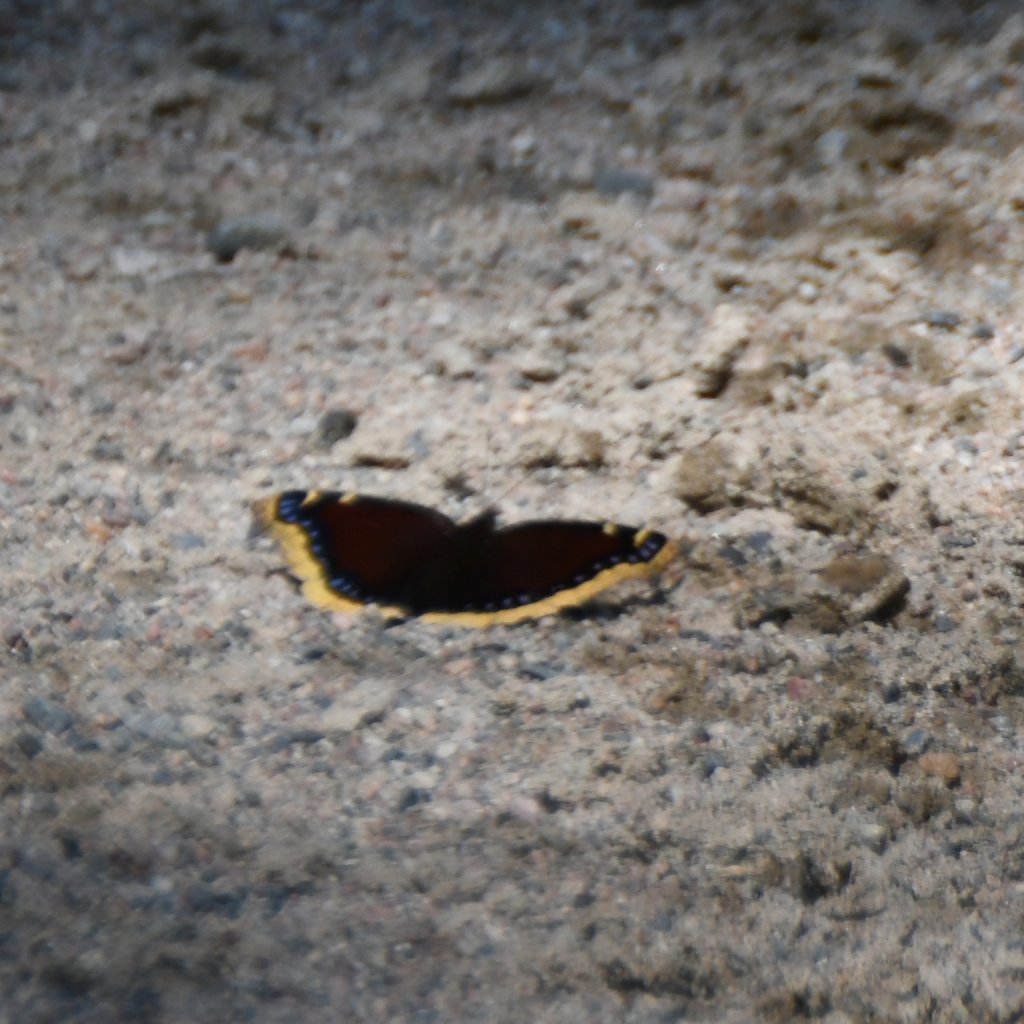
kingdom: Animalia
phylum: Arthropoda
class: Insecta
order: Lepidoptera
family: Nymphalidae
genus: Nymphalis
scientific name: Nymphalis antiopa
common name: Mourning Cloak
